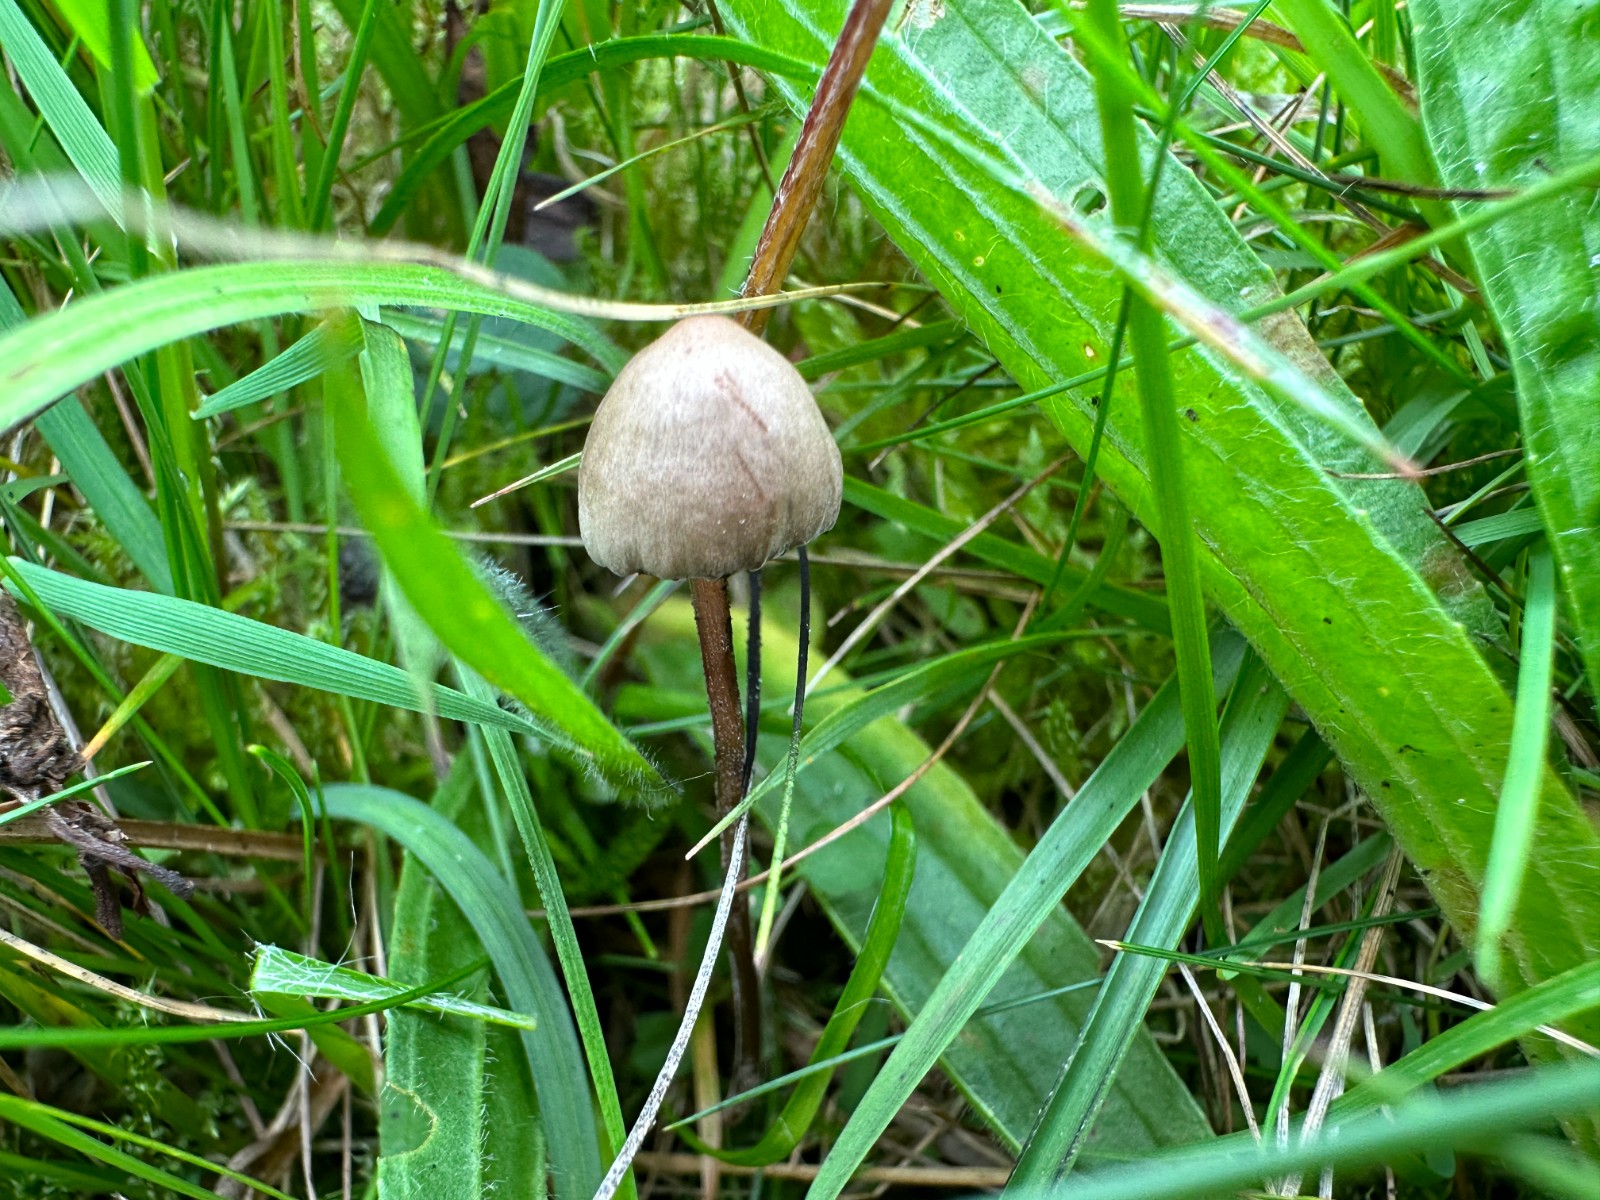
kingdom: Fungi
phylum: Basidiomycota
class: Agaricomycetes
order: Agaricales
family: Bolbitiaceae
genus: Panaeolus
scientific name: Panaeolus acuminatus
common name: høj glanshat
